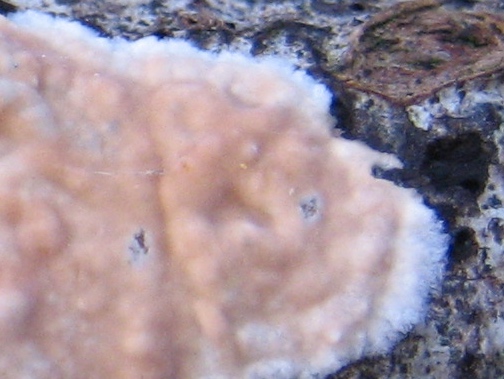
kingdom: Fungi
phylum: Basidiomycota
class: Agaricomycetes
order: Agaricales
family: Physalacriaceae
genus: Cylindrobasidium
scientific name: Cylindrobasidium evolvens
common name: sprækkehinde
